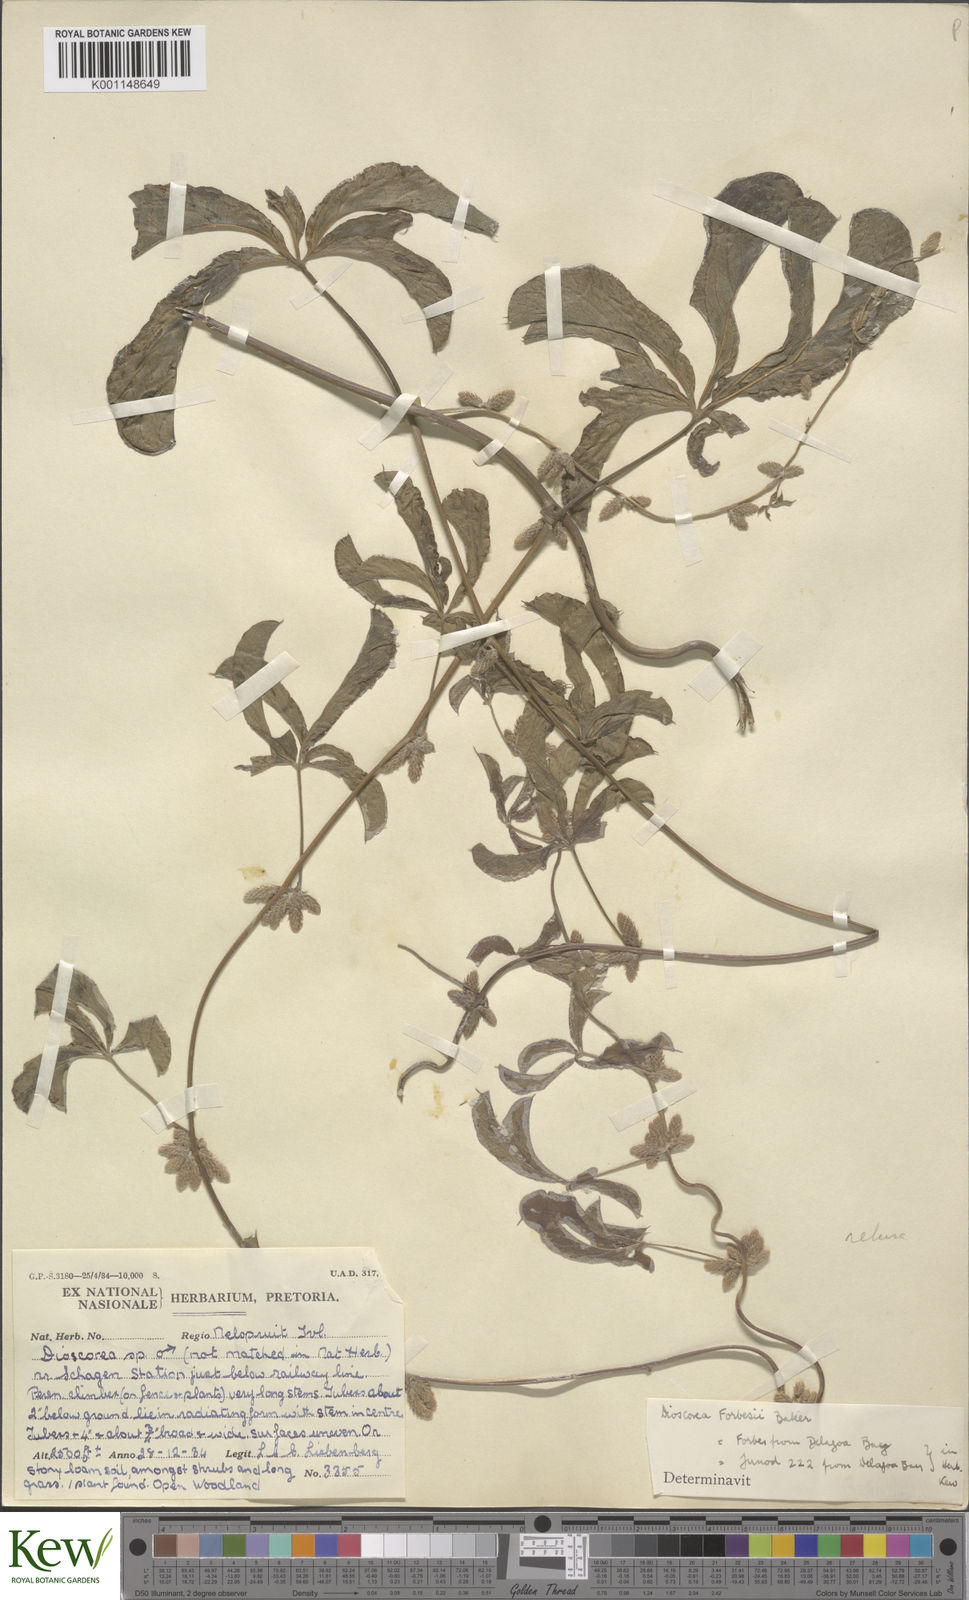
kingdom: Plantae
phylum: Tracheophyta
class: Liliopsida
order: Dioscoreales
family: Dioscoreaceae
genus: Dioscorea
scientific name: Dioscorea quartiniana
